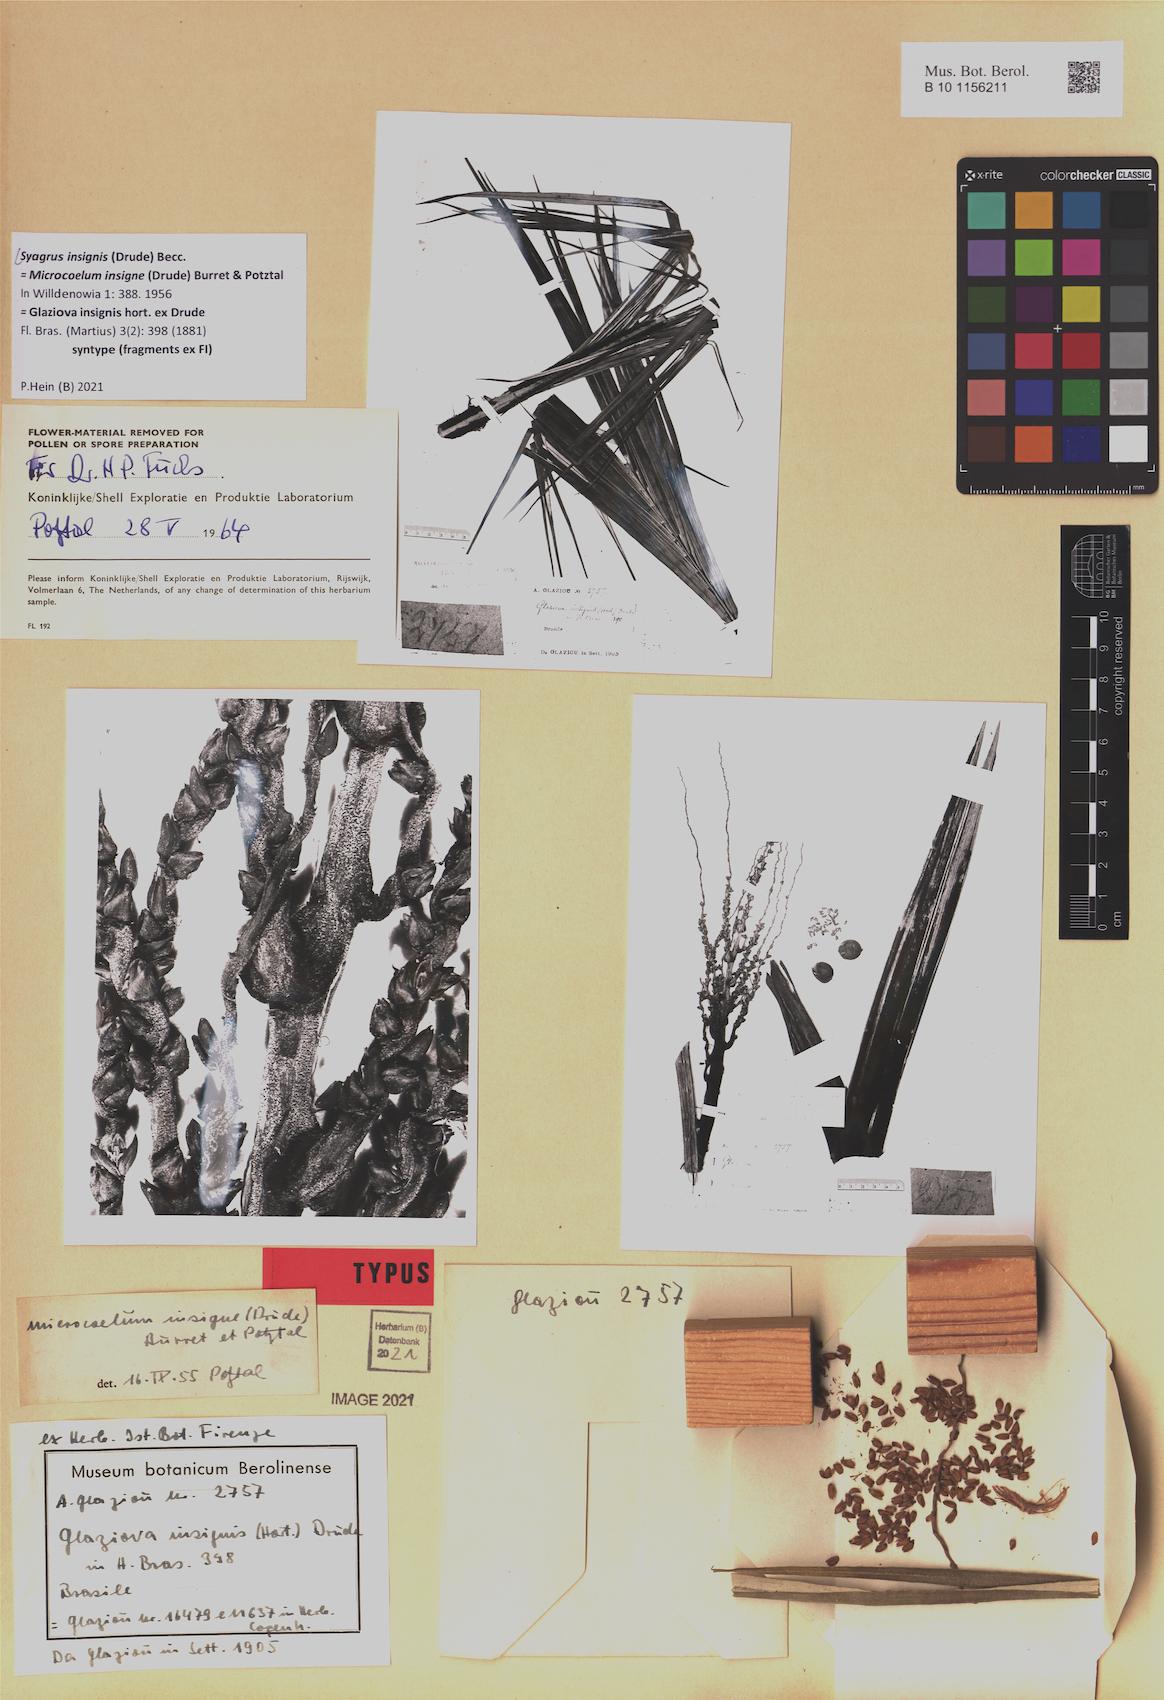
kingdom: Plantae
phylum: Tracheophyta
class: Liliopsida
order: Arecales
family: Arecaceae
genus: Syagrus
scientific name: Syagrus insignis
